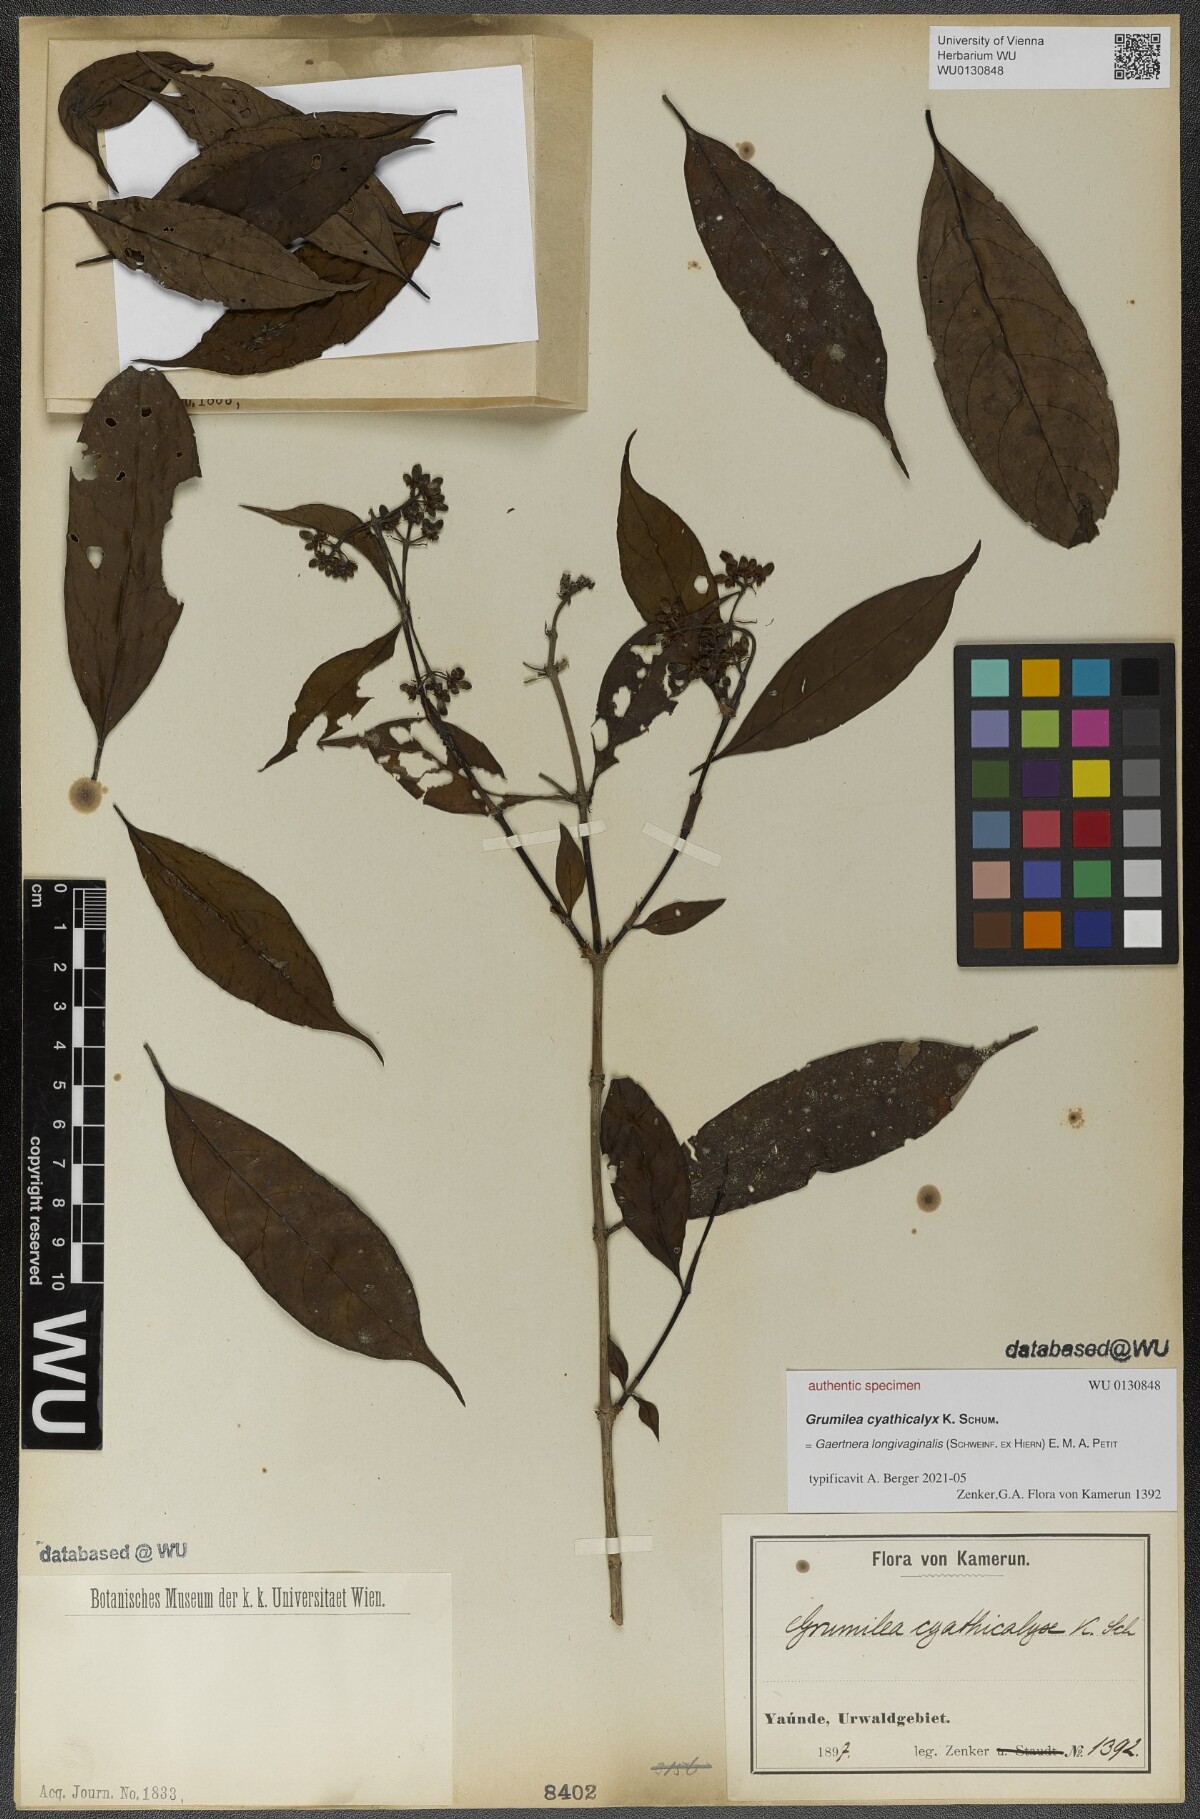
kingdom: Plantae
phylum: Tracheophyta
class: Magnoliopsida
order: Gentianales
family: Rubiaceae
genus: Gaertnera
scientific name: Gaertnera longivaginalis
